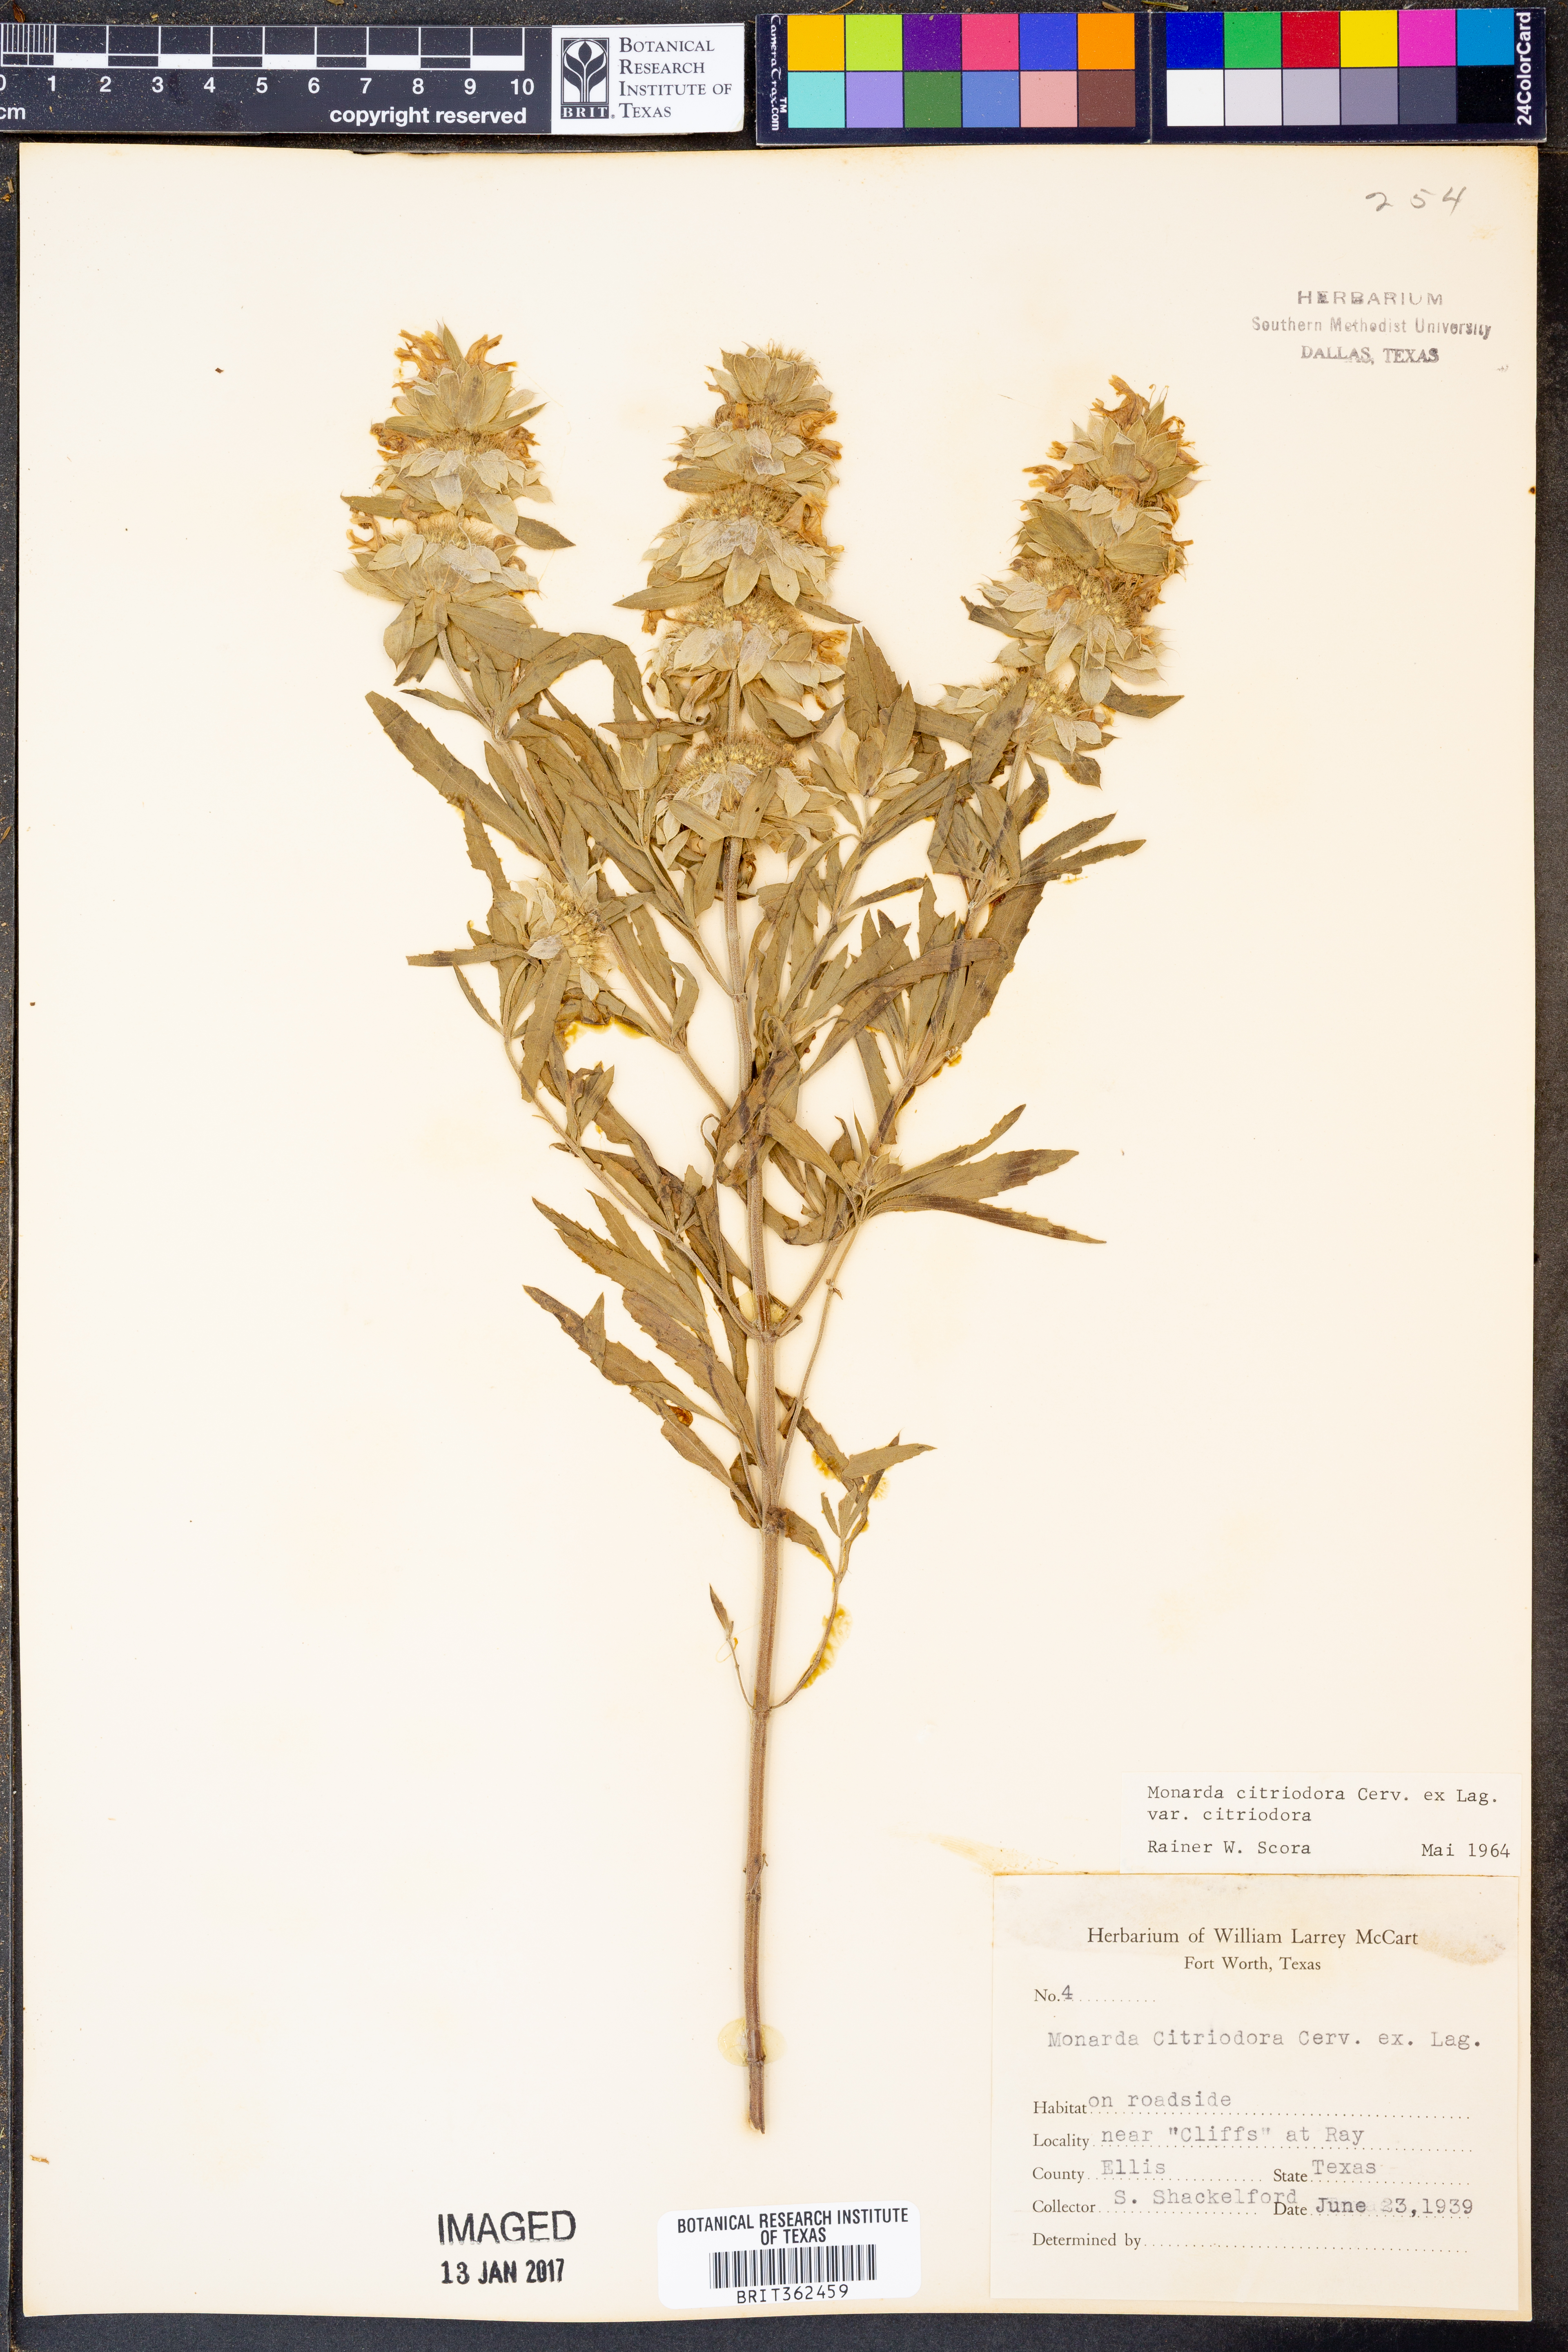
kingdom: Plantae
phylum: Tracheophyta
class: Magnoliopsida
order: Lamiales
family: Lamiaceae
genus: Monarda
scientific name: Monarda citriodora
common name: Lemon beebalm
